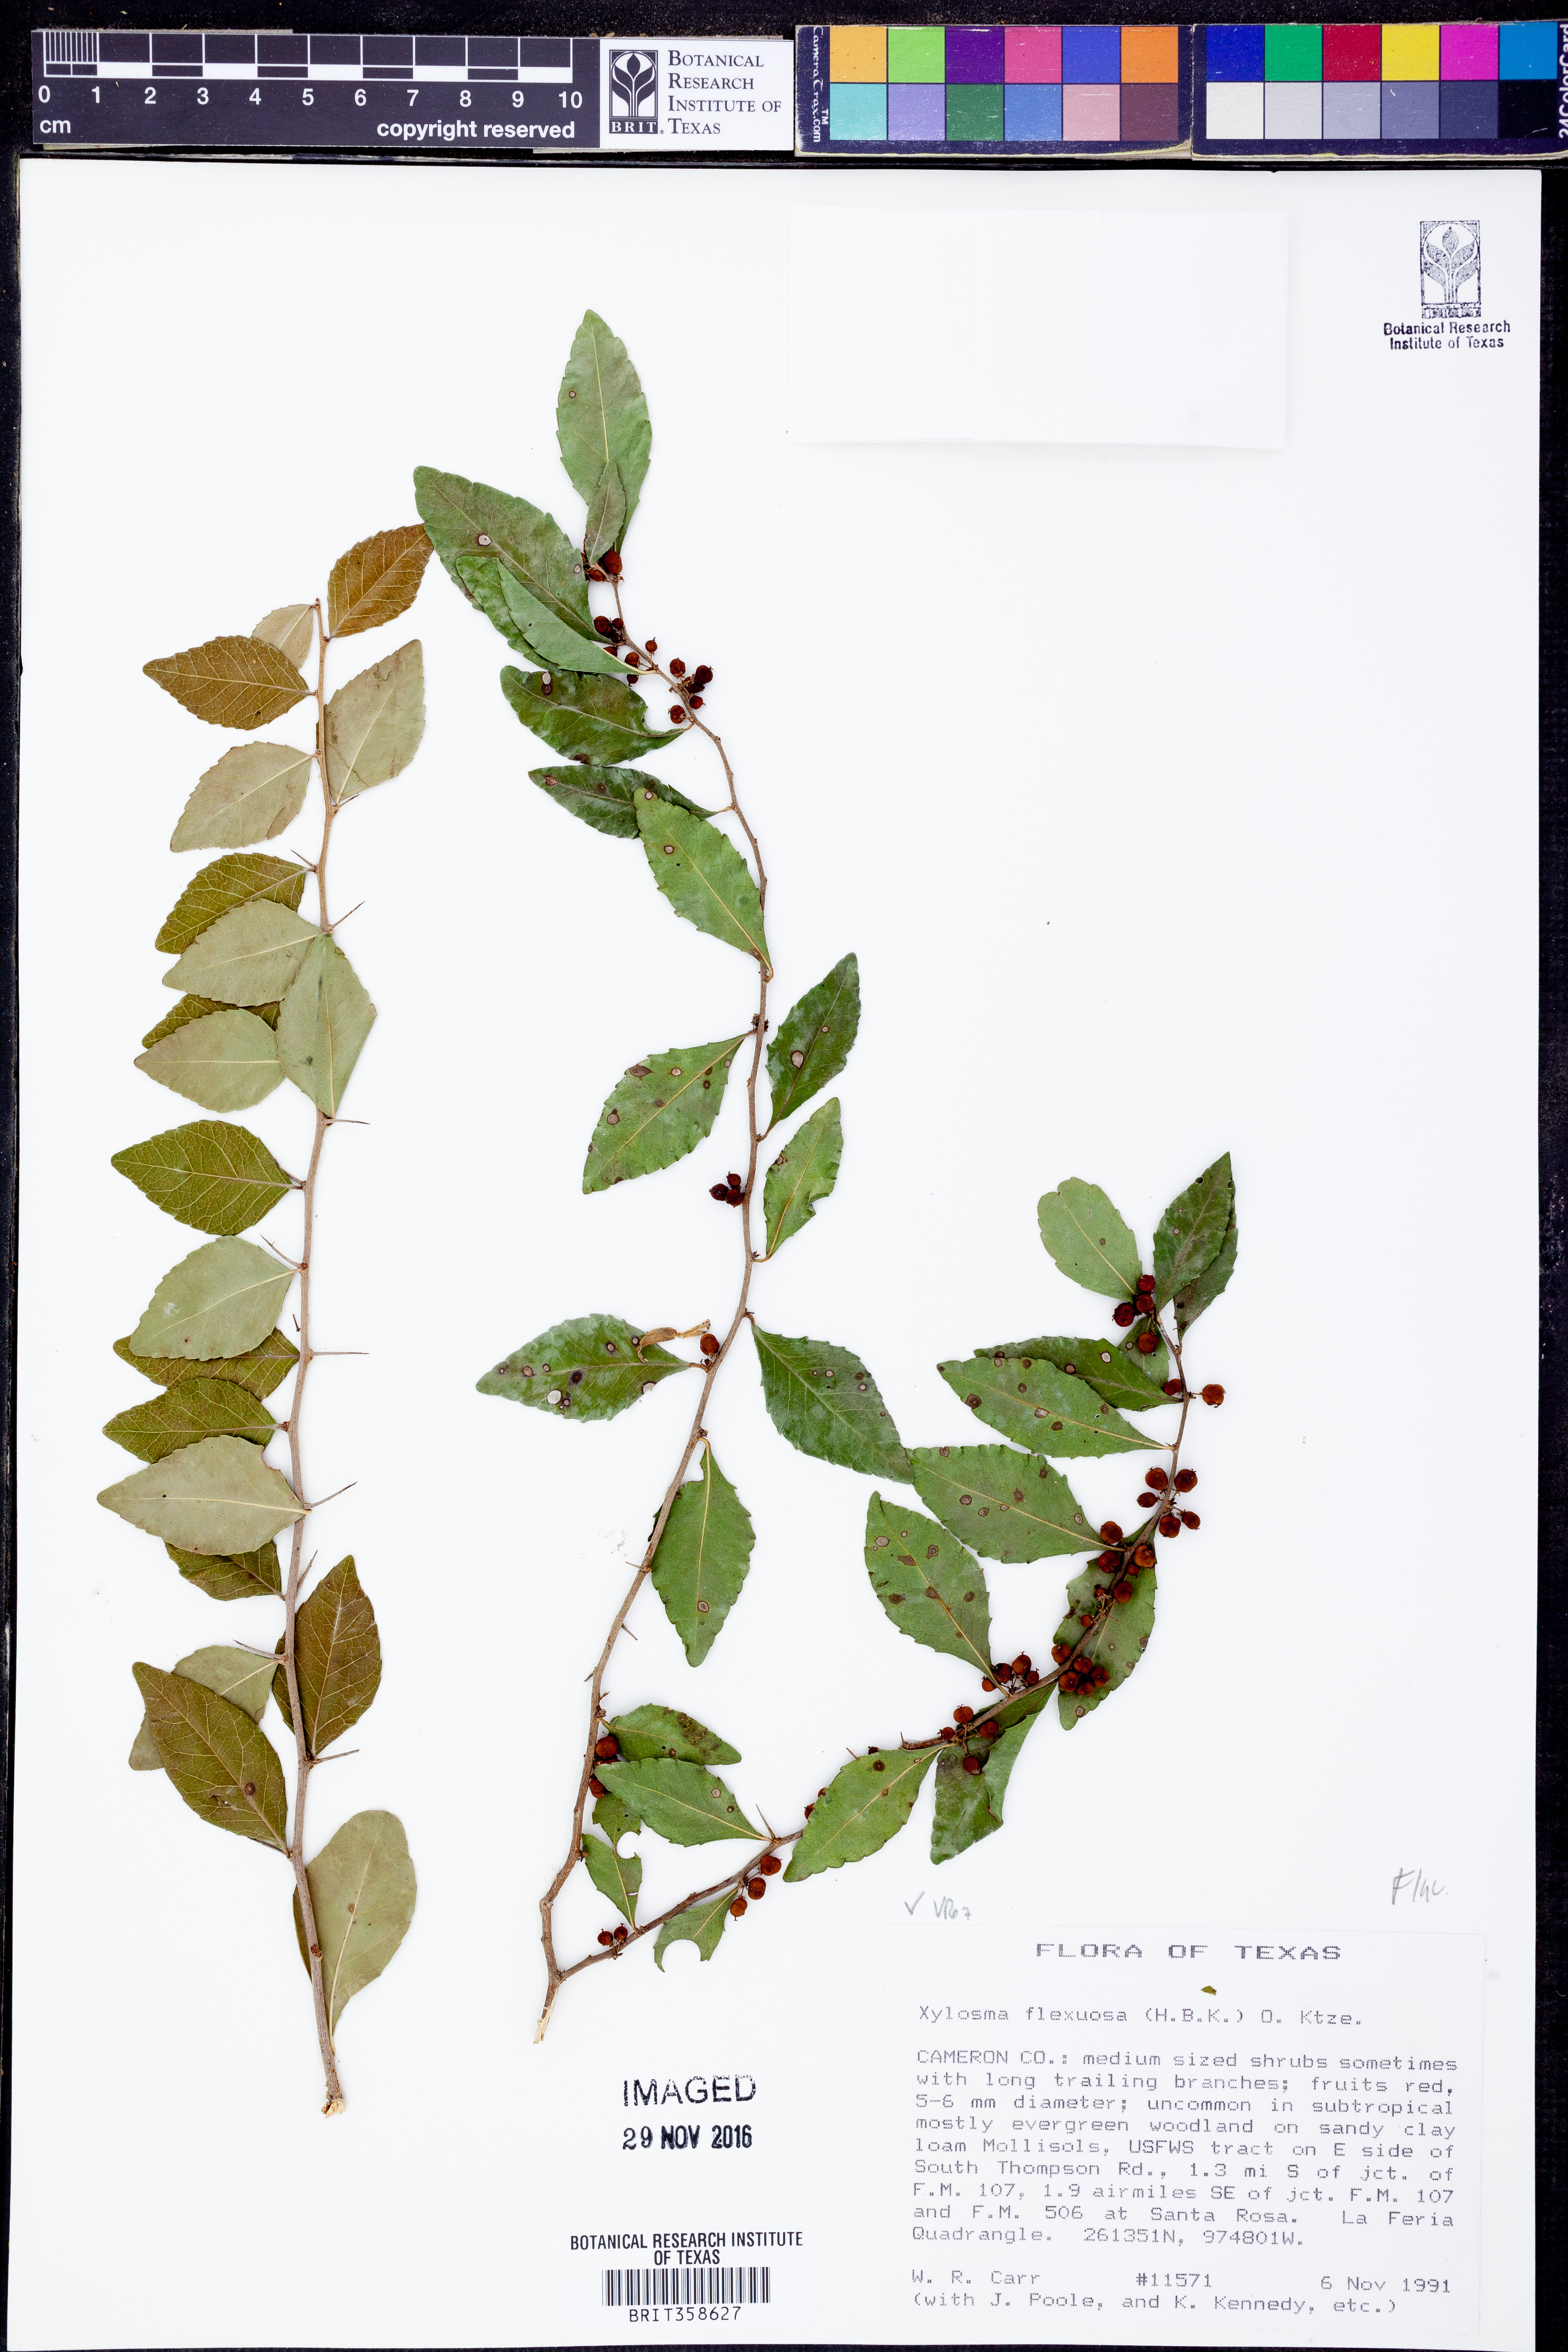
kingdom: Plantae
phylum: Tracheophyta
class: Magnoliopsida
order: Malpighiales
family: Salicaceae
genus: Xylosma
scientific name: Xylosma flexuosa
